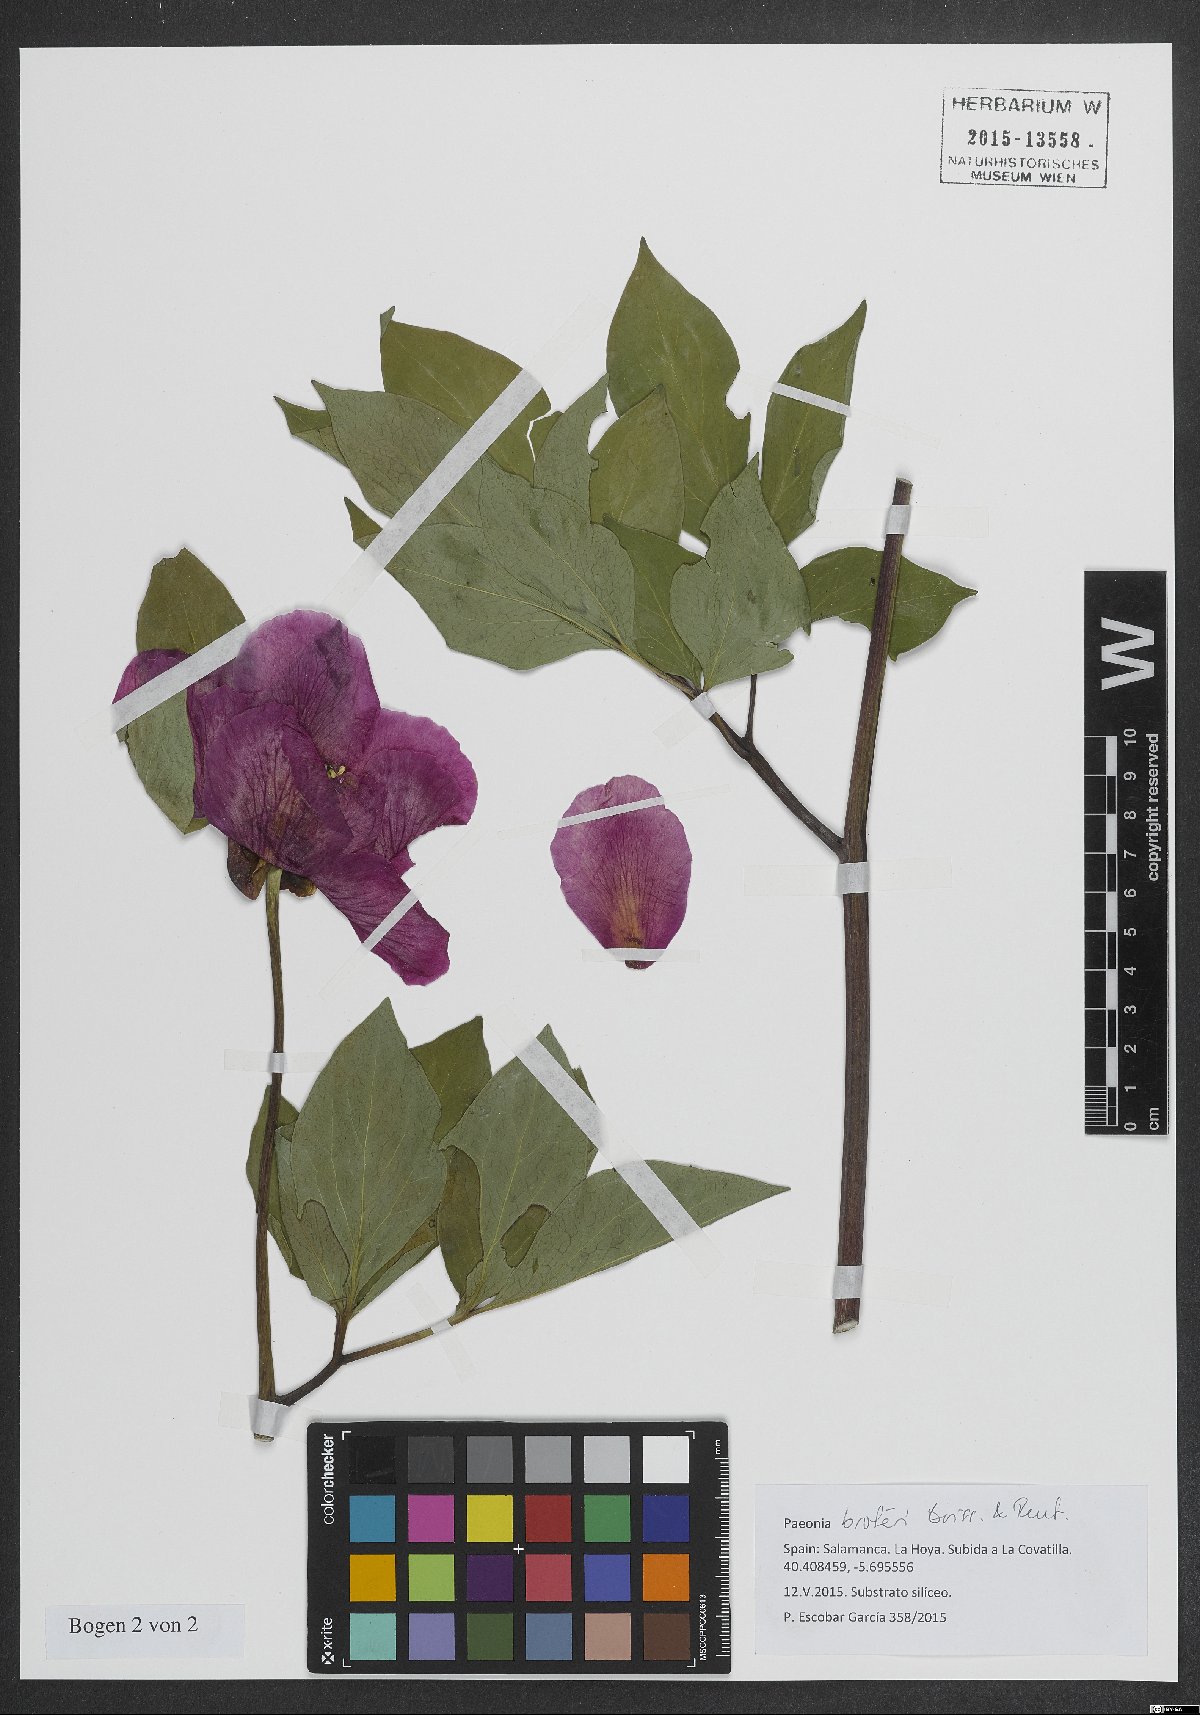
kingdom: Plantae
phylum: Tracheophyta
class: Magnoliopsida
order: Saxifragales
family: Paeoniaceae
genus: Paeonia
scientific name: Paeonia broteroi
